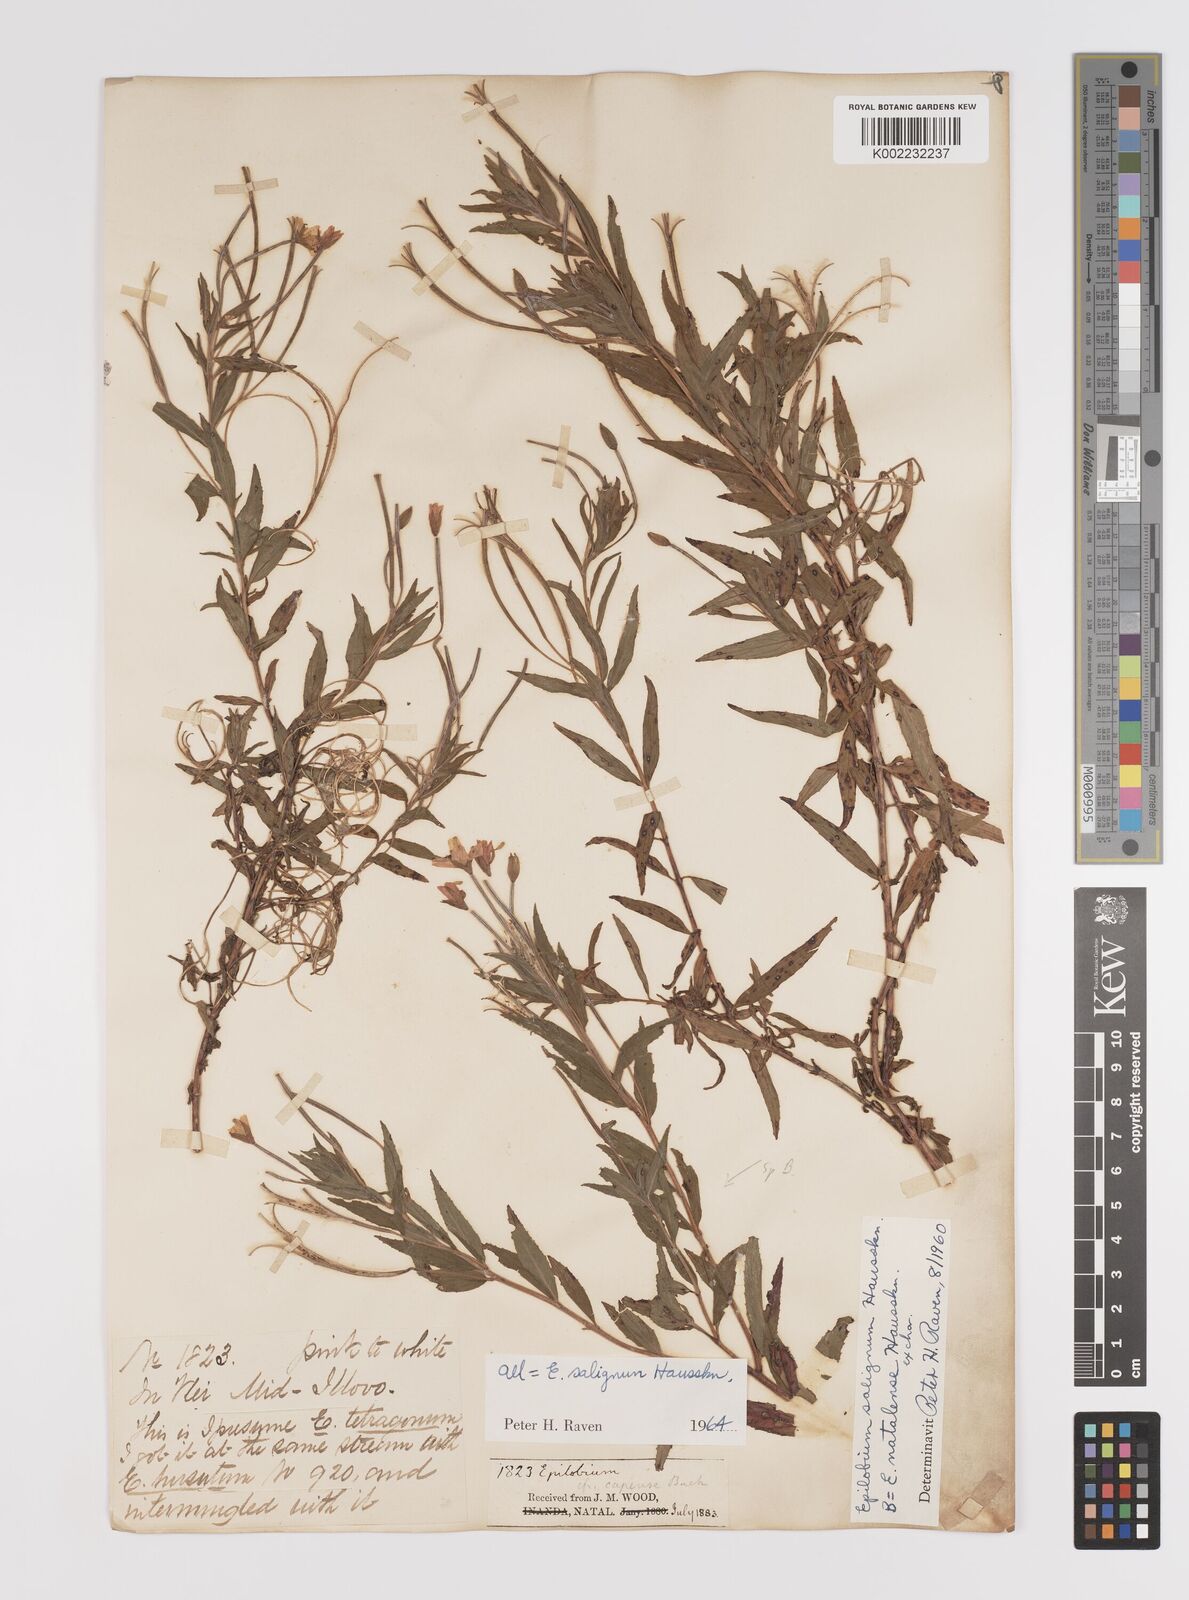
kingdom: Plantae
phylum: Tracheophyta
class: Magnoliopsida
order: Myrtales
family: Onagraceae
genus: Epilobium
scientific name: Epilobium salignum
